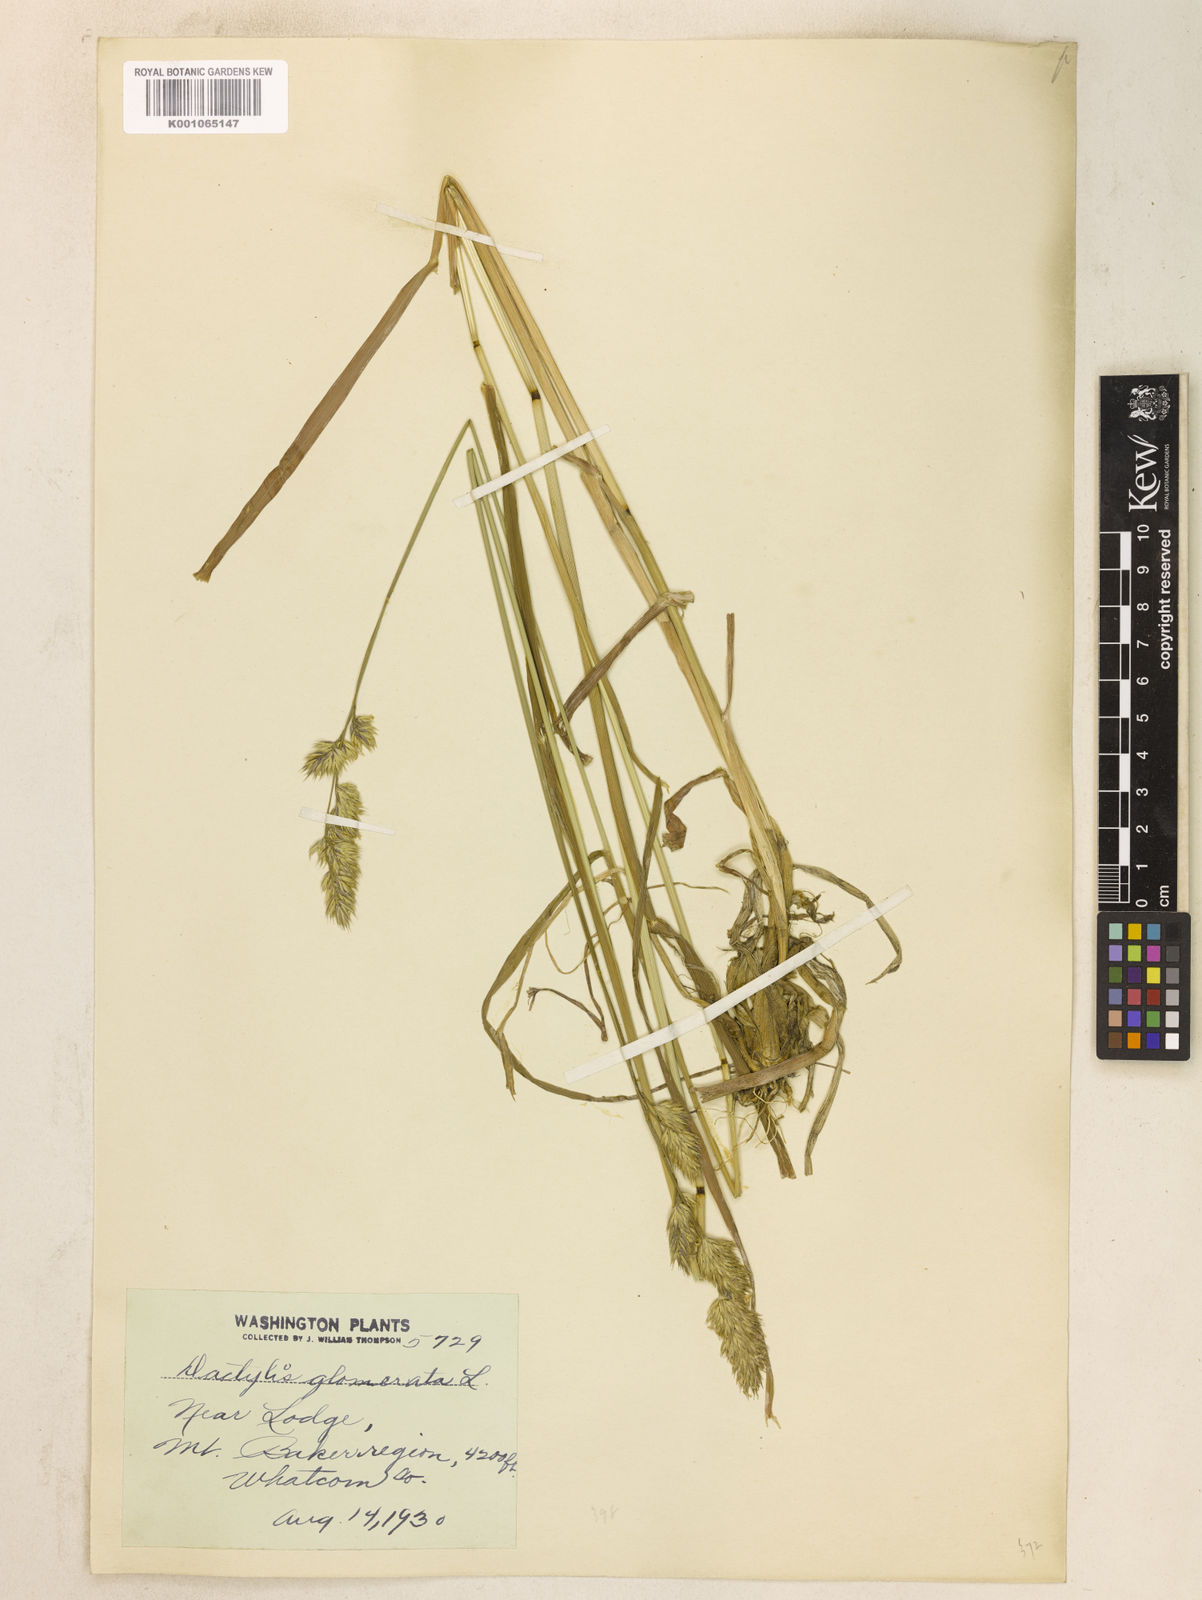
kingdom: Plantae
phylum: Tracheophyta
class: Liliopsida
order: Poales
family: Poaceae
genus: Dactylis
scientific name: Dactylis glomerata
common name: Orchardgrass
